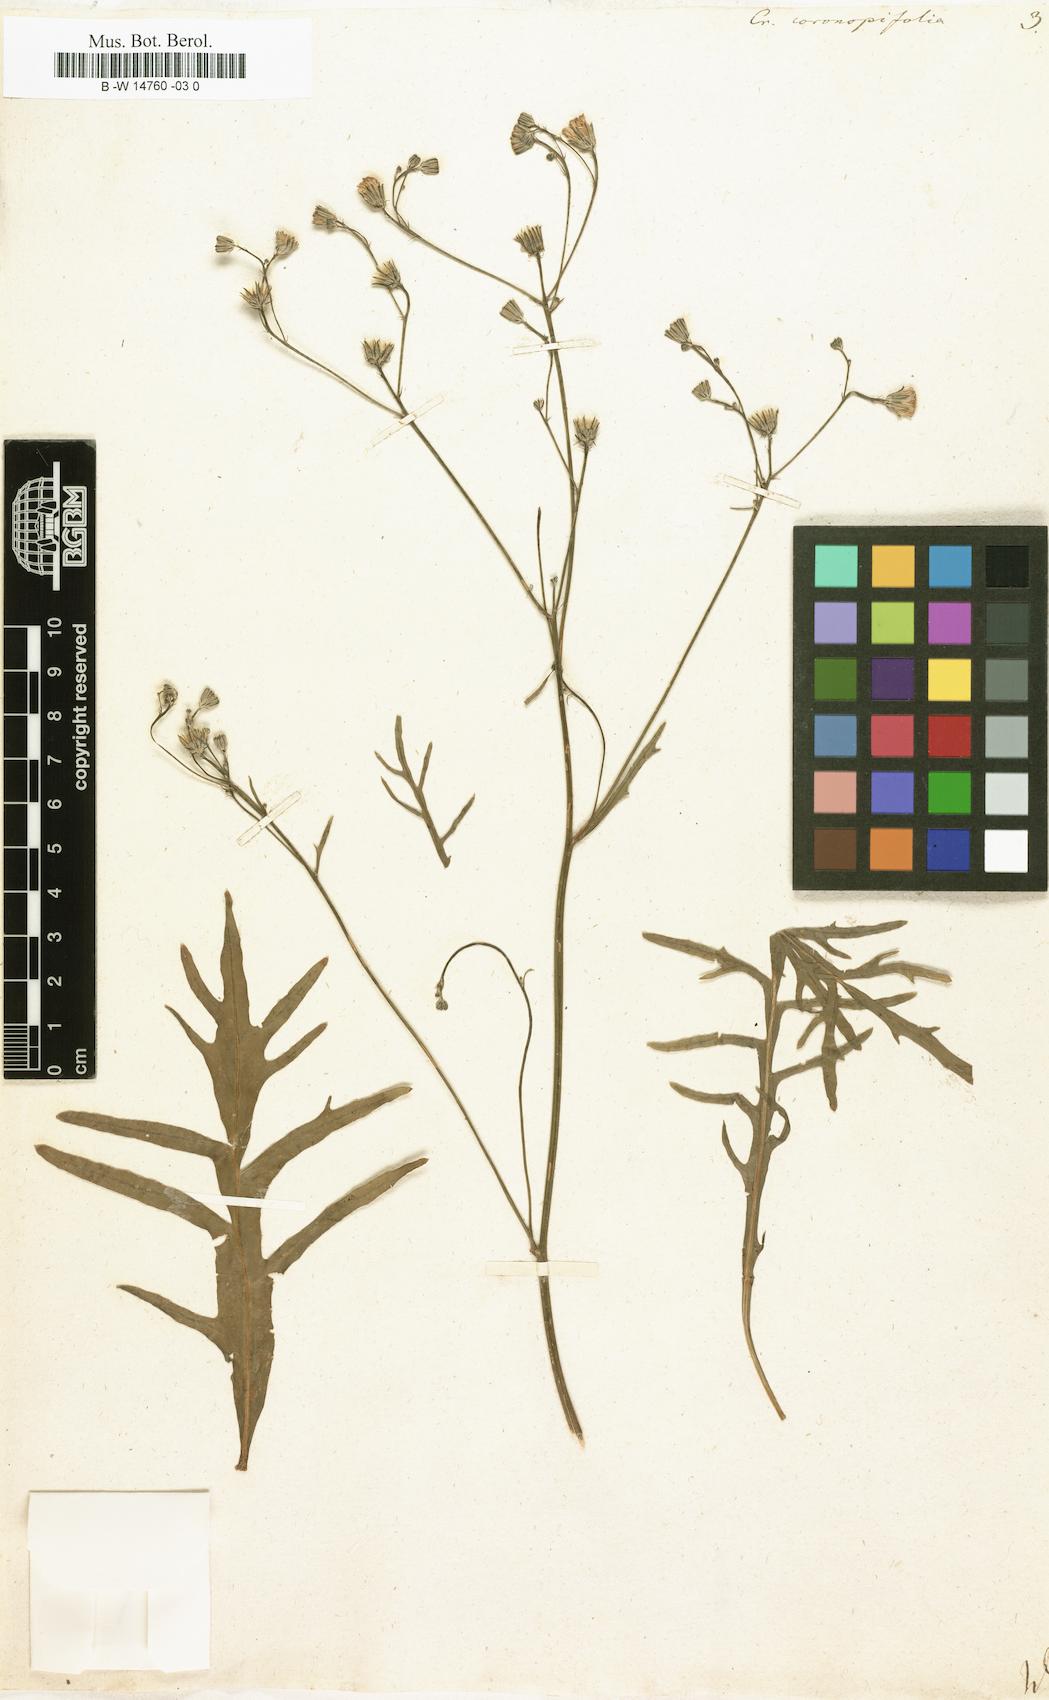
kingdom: Plantae
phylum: Tracheophyta
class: Magnoliopsida
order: Asterales
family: Asteraceae
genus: Tolpis
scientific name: Tolpis coronopifolia
